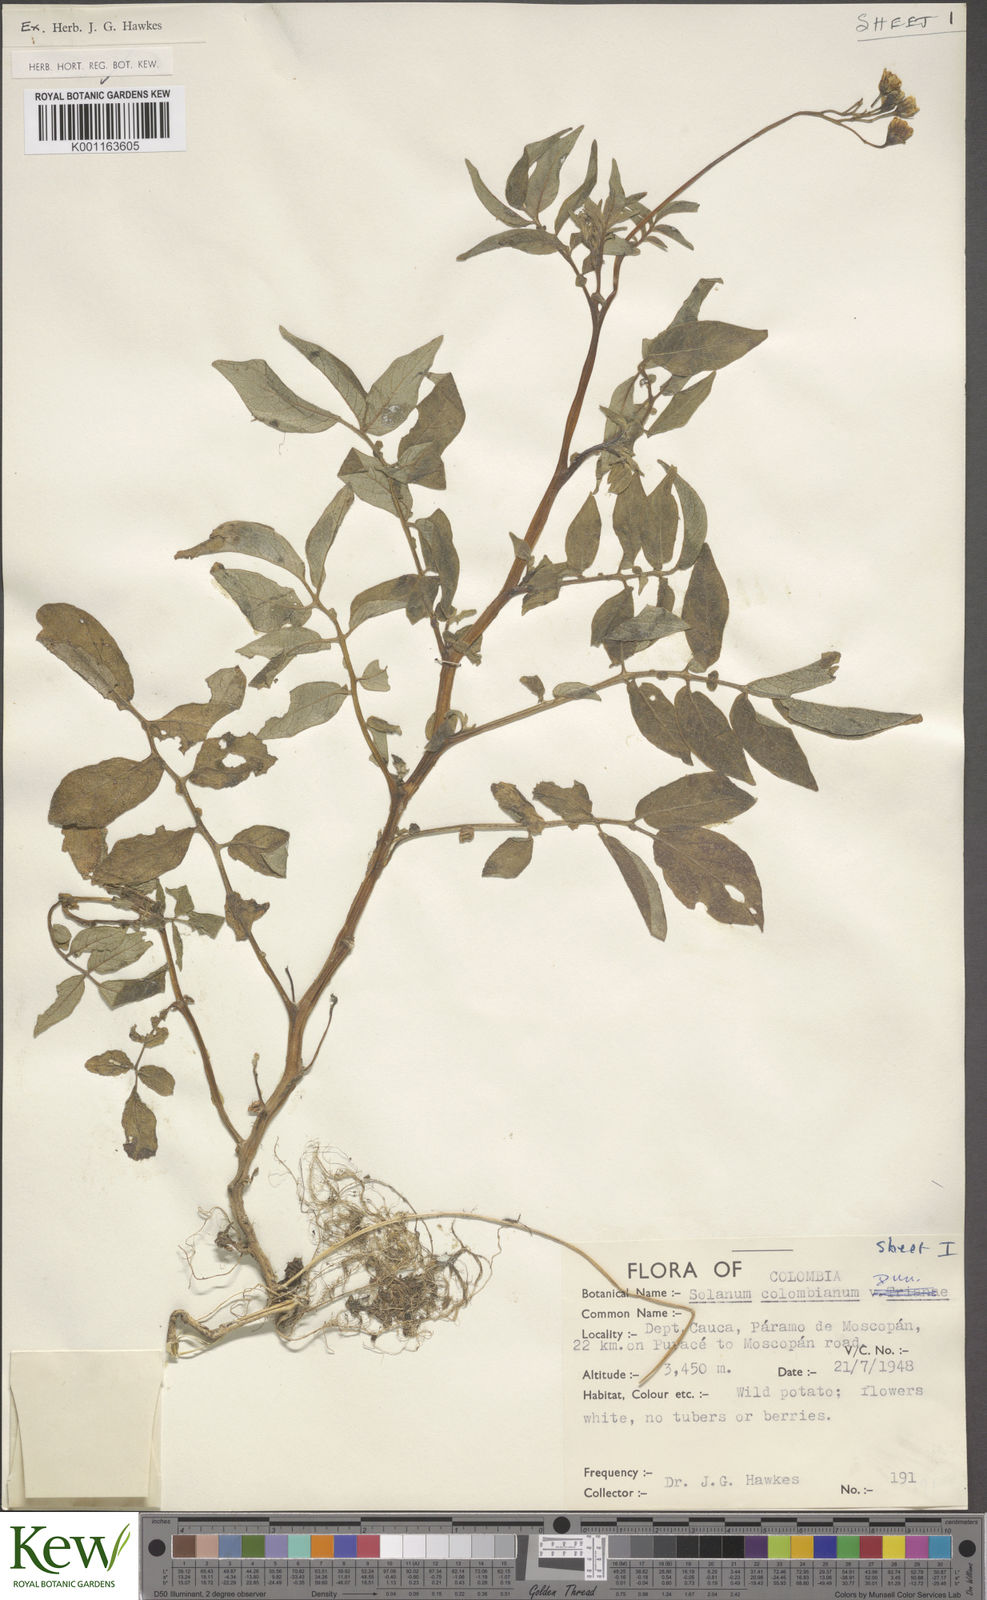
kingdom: Plantae
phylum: Tracheophyta
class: Magnoliopsida
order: Solanales
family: Solanaceae
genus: Solanum
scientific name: Solanum colombianum
